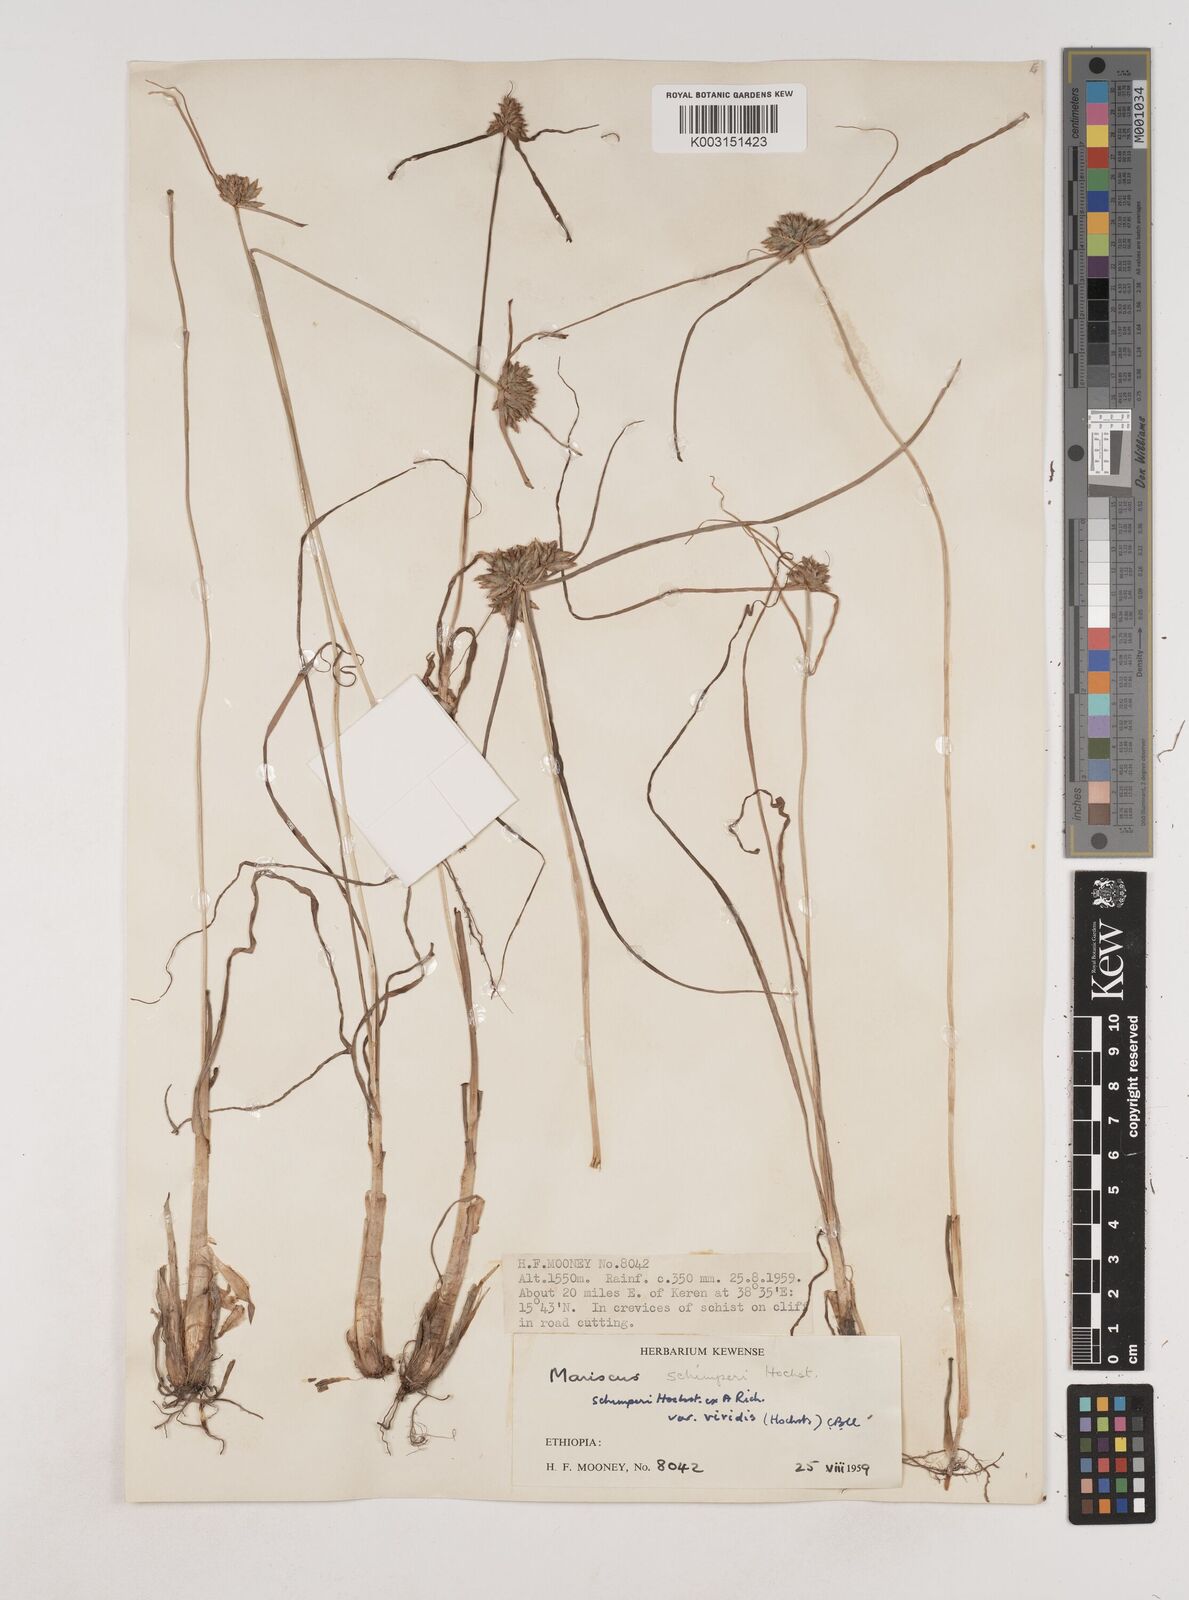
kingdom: Plantae
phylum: Tracheophyta
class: Liliopsida
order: Poales
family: Cyperaceae
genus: Cyperus
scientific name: Cyperus cruentus
